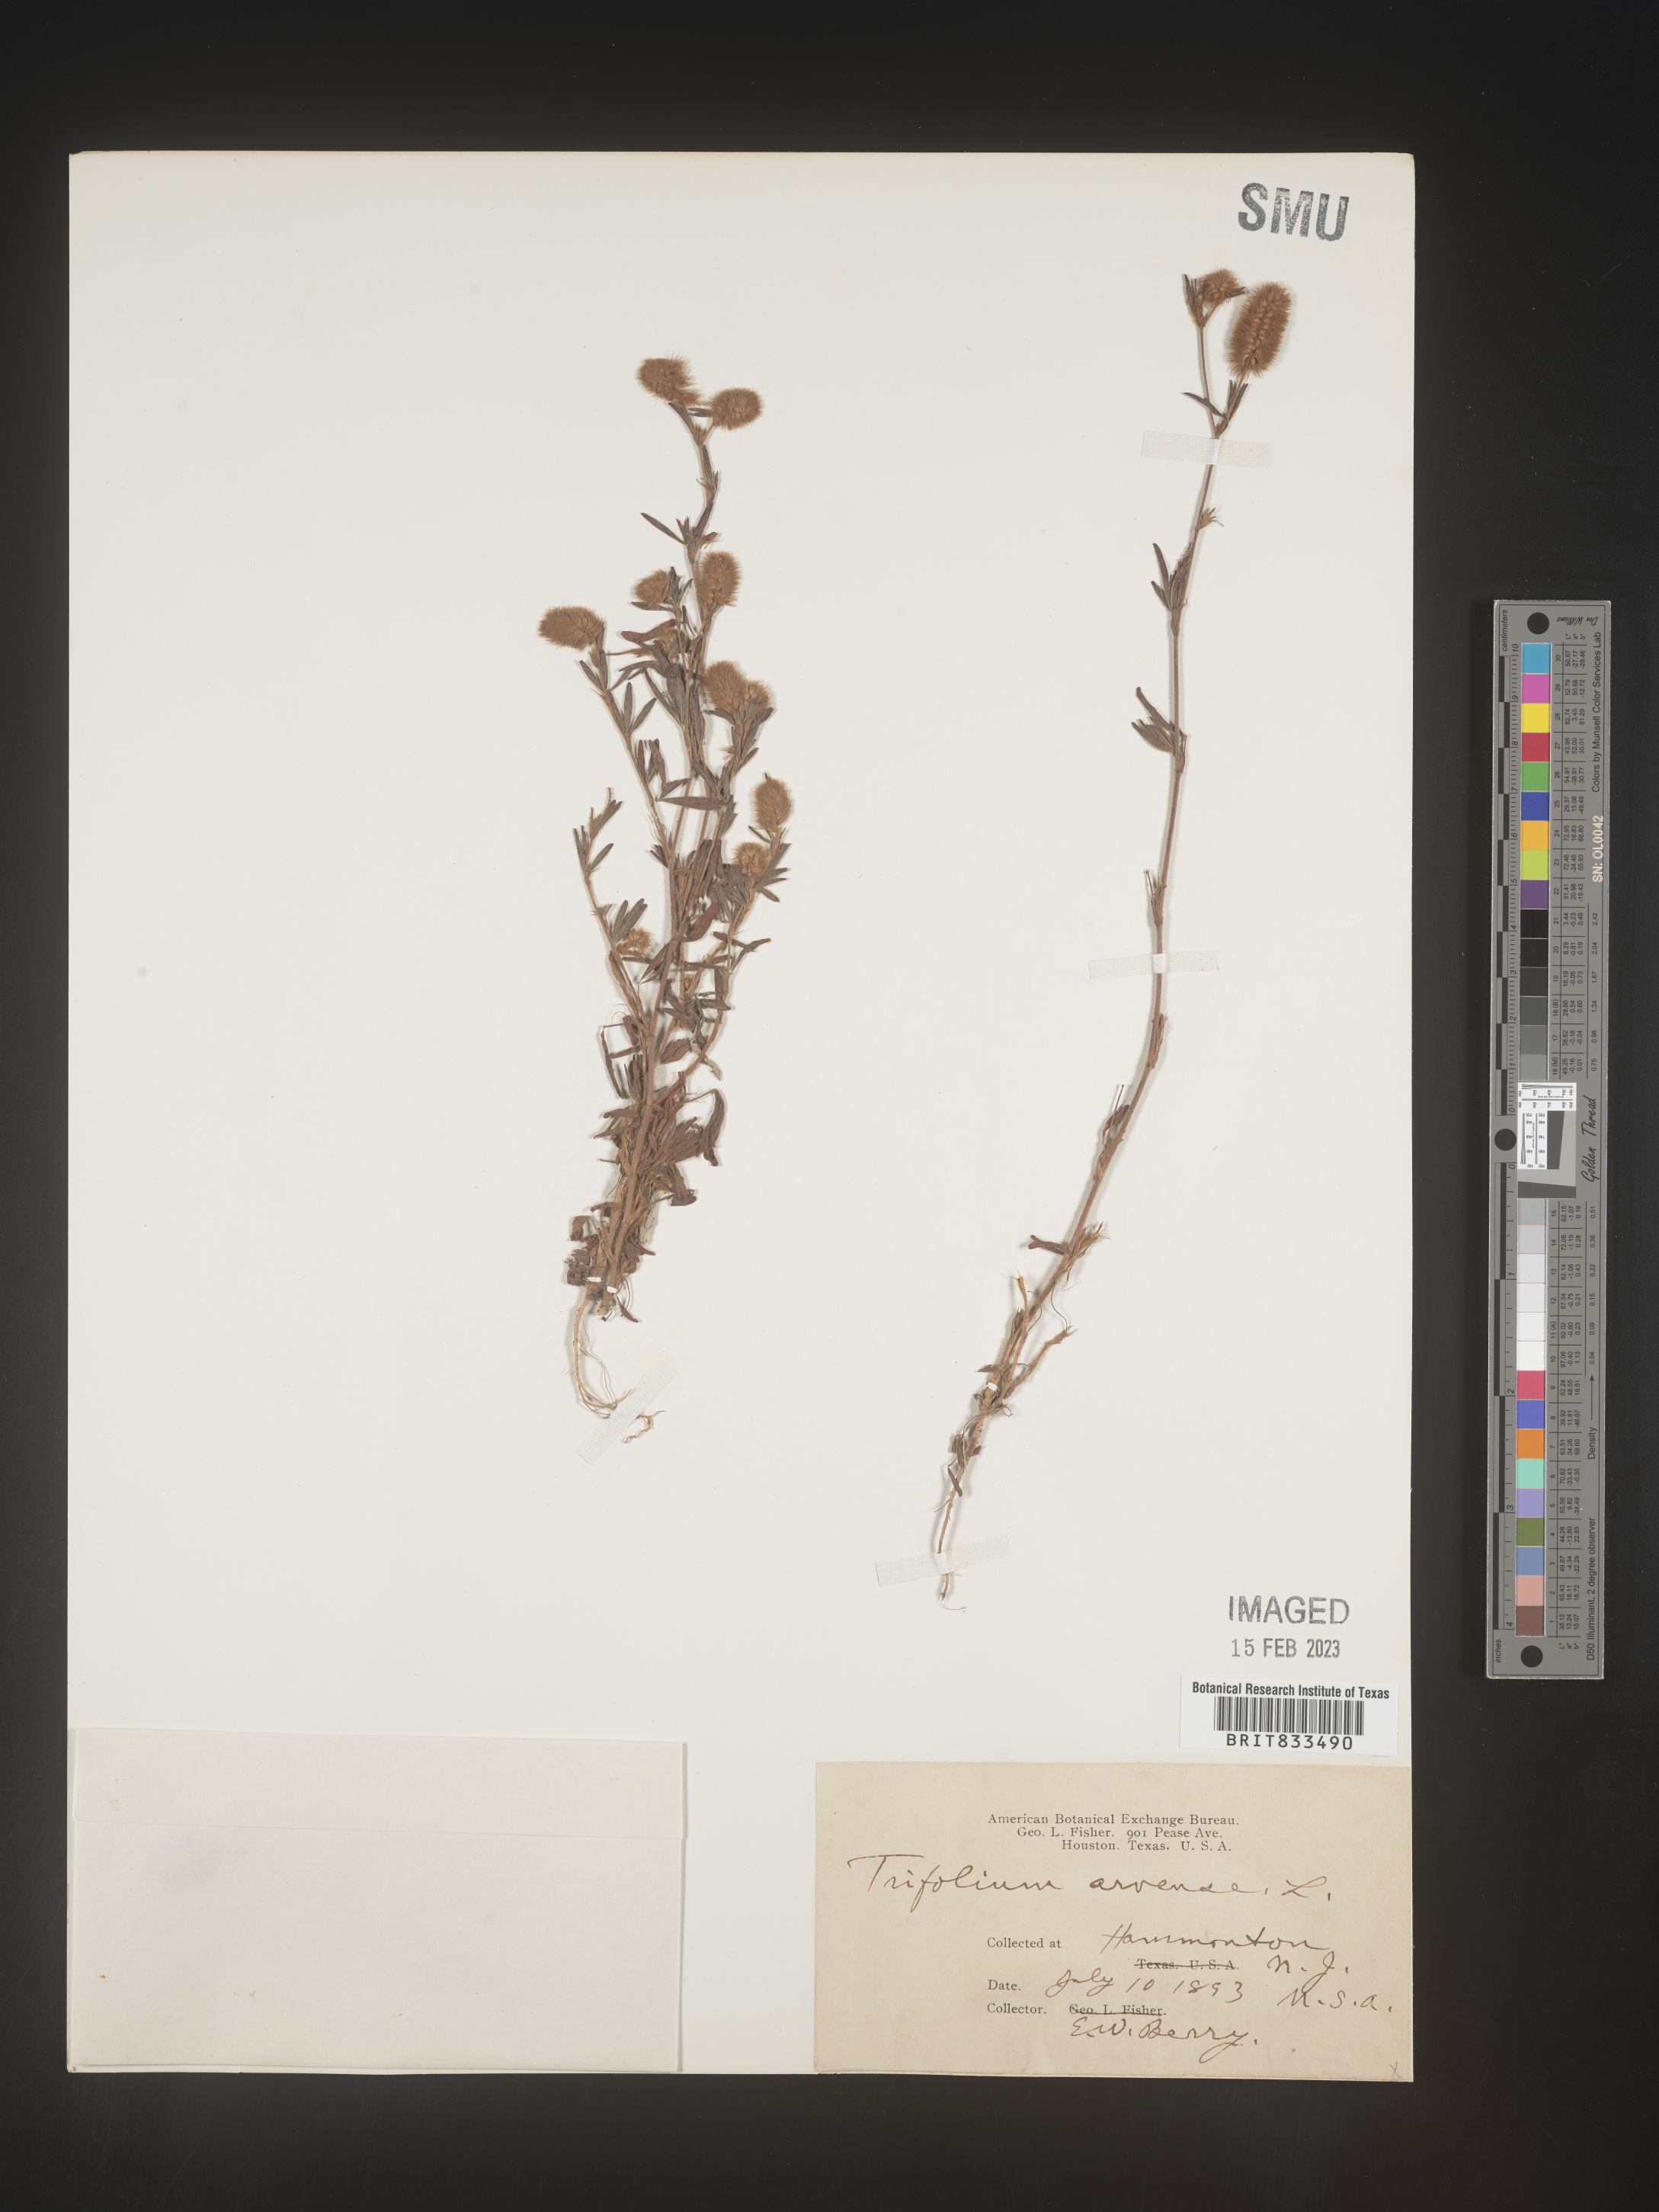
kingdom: Plantae
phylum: Tracheophyta
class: Magnoliopsida
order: Fabales
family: Fabaceae
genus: Trifolium
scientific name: Trifolium arvense
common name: Hare's-foot clover
